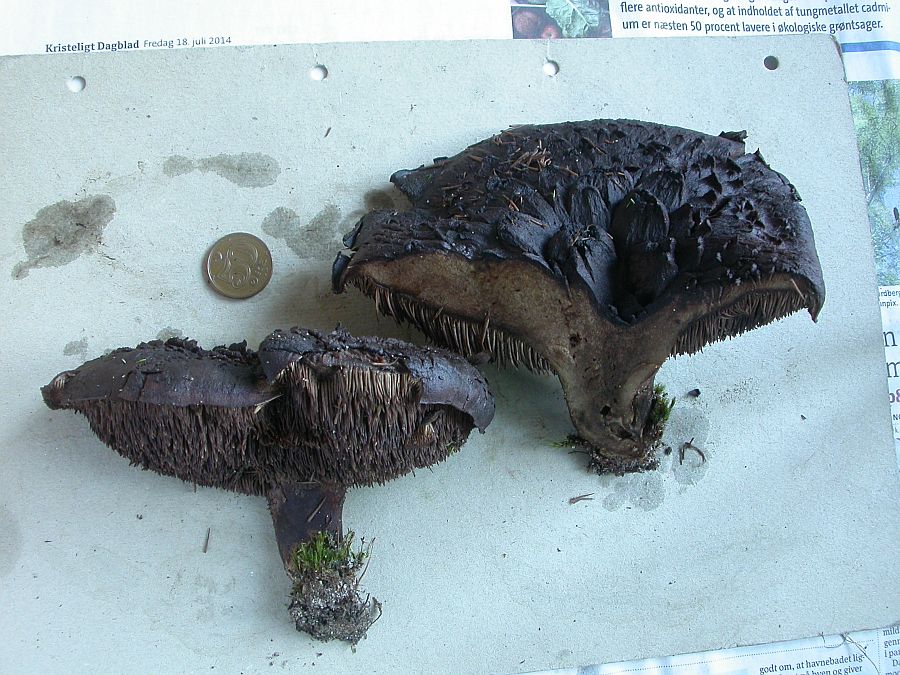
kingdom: Fungi
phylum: Basidiomycota
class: Agaricomycetes
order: Thelephorales
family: Bankeraceae
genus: Sarcodon
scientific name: Sarcodon squamosus
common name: småskællet kødpigsvamp
